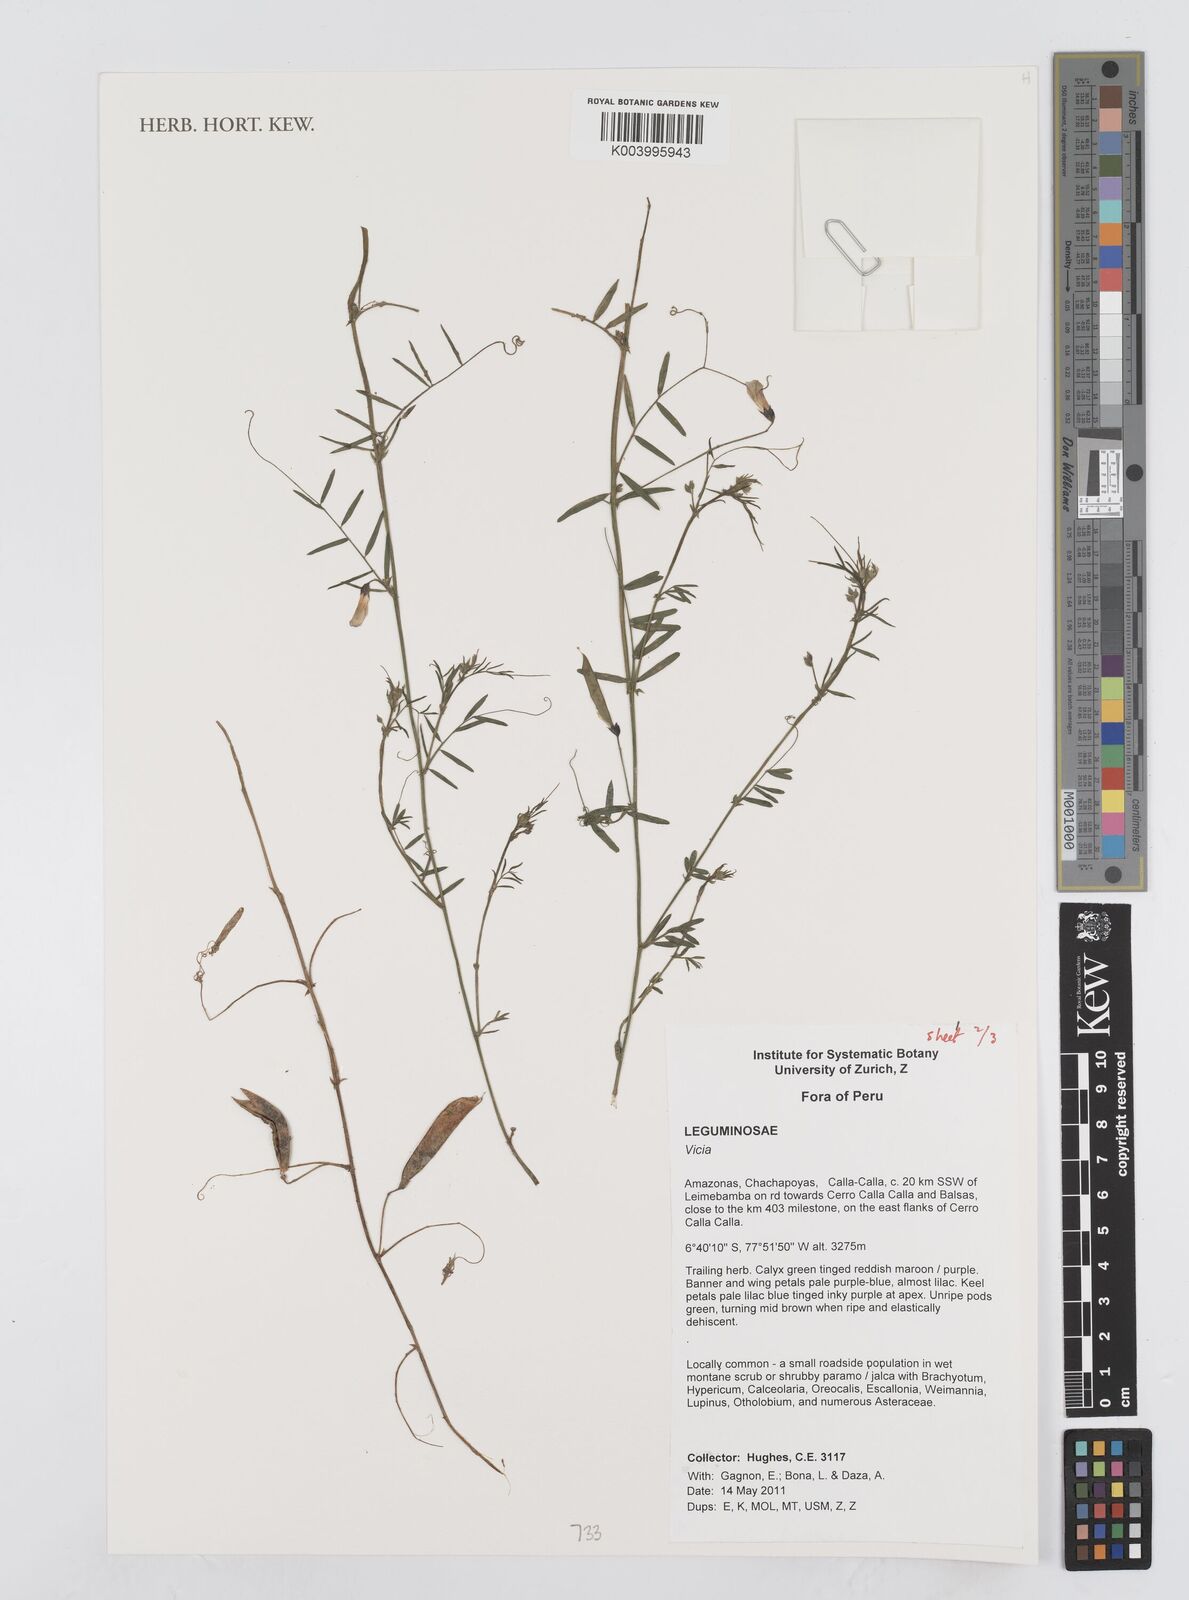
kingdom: Plantae
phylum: Tracheophyta
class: Magnoliopsida
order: Fabales
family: Fabaceae
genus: Vicia
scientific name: Vicia
